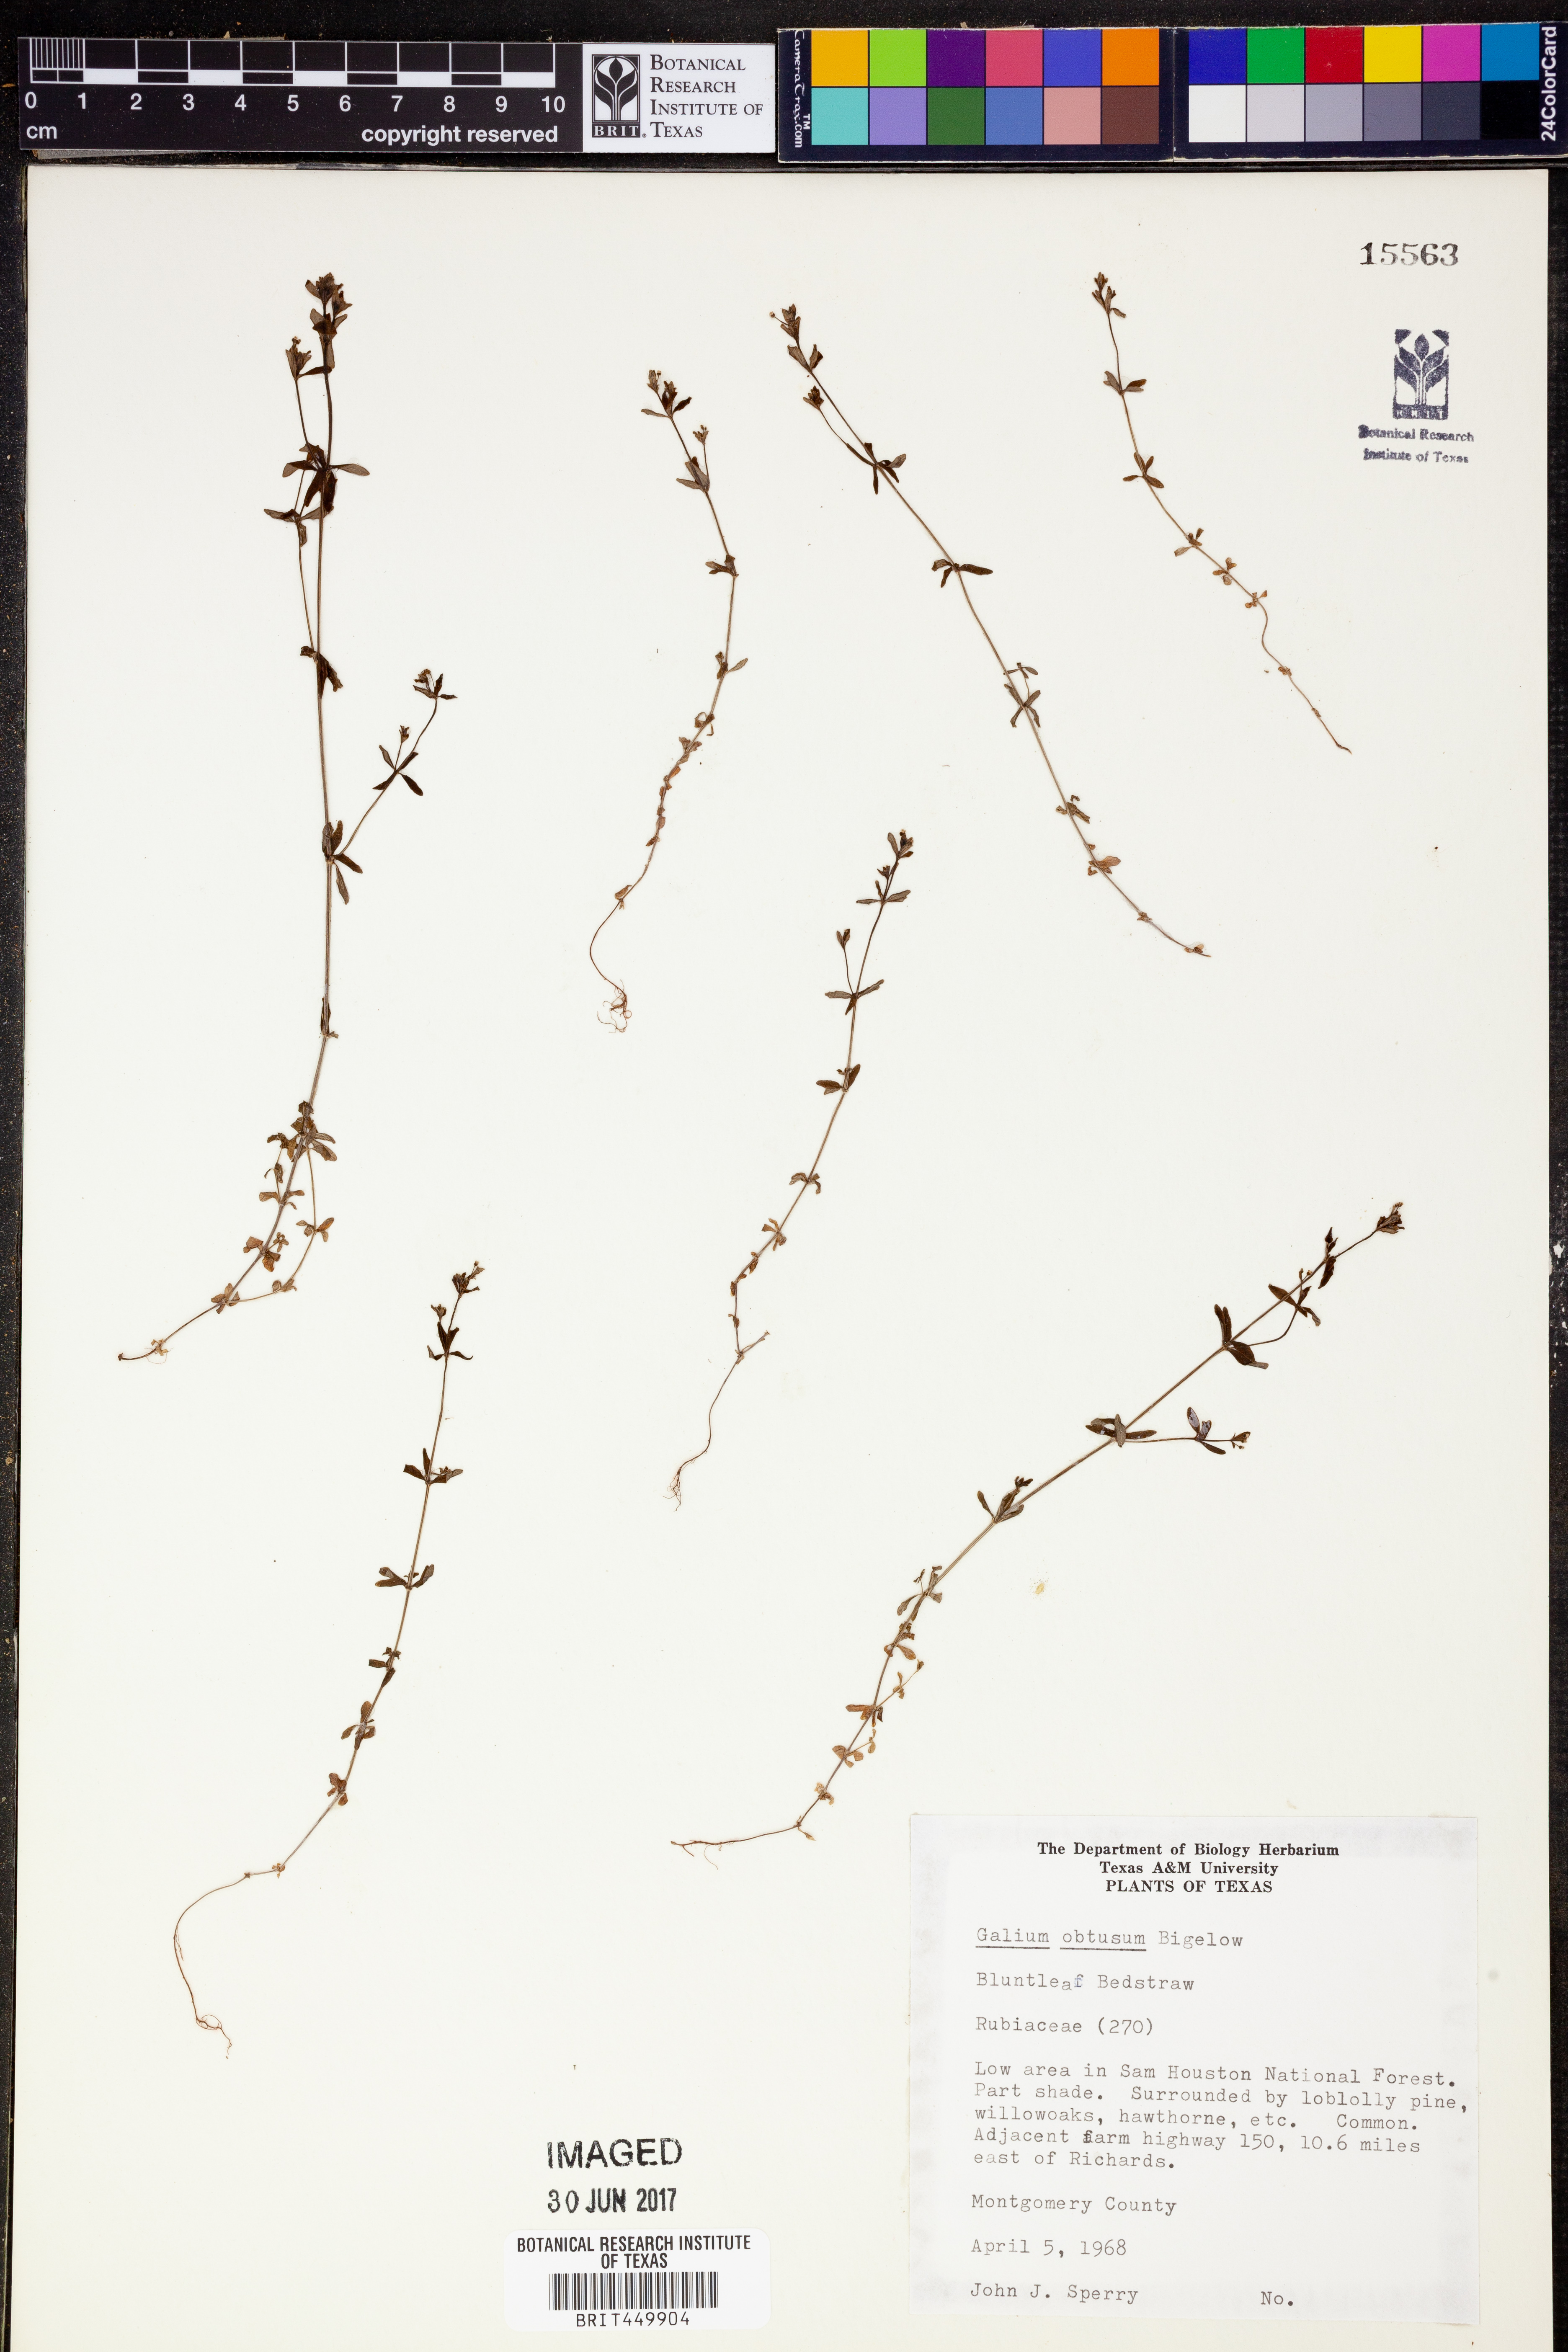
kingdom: Plantae
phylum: Tracheophyta
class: Magnoliopsida
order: Gentianales
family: Rubiaceae
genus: Galium
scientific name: Galium obtusum
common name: Blunt-leaved bedstraw
